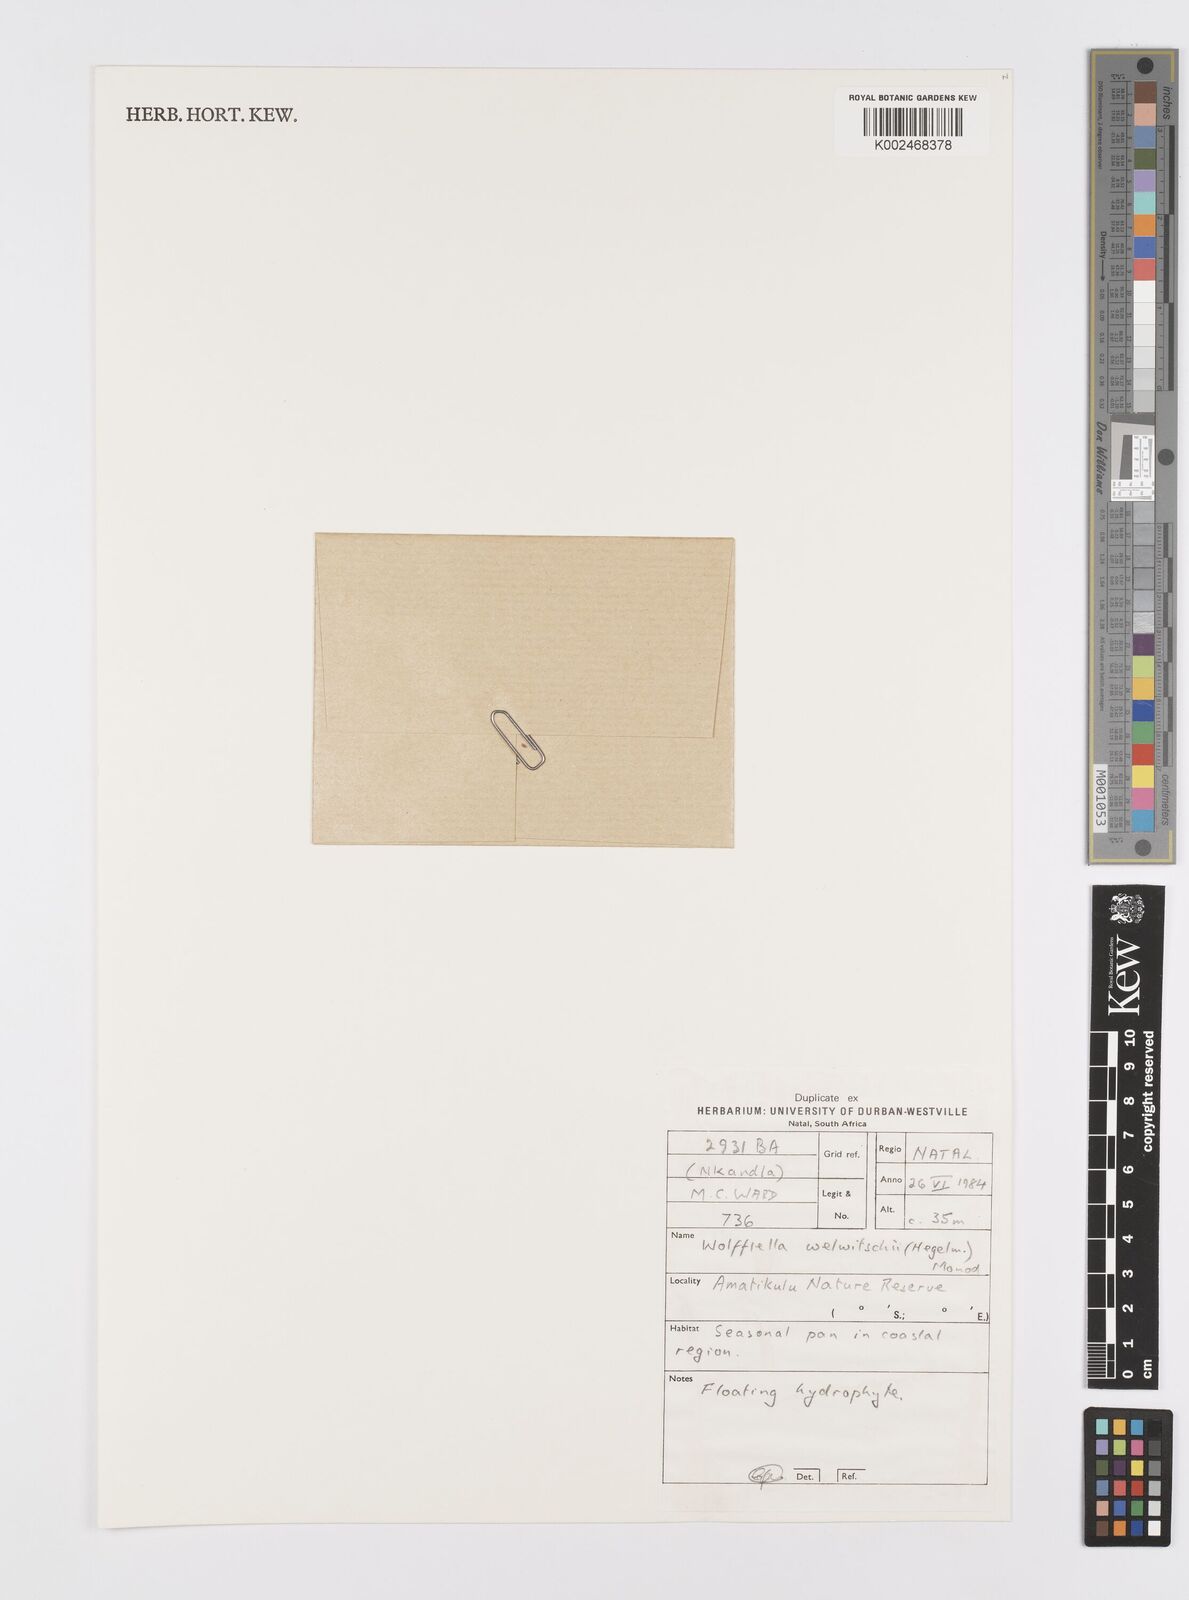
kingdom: Plantae
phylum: Tracheophyta
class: Liliopsida
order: Alismatales
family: Araceae
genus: Wolffiella
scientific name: Wolffiella welwitschii
